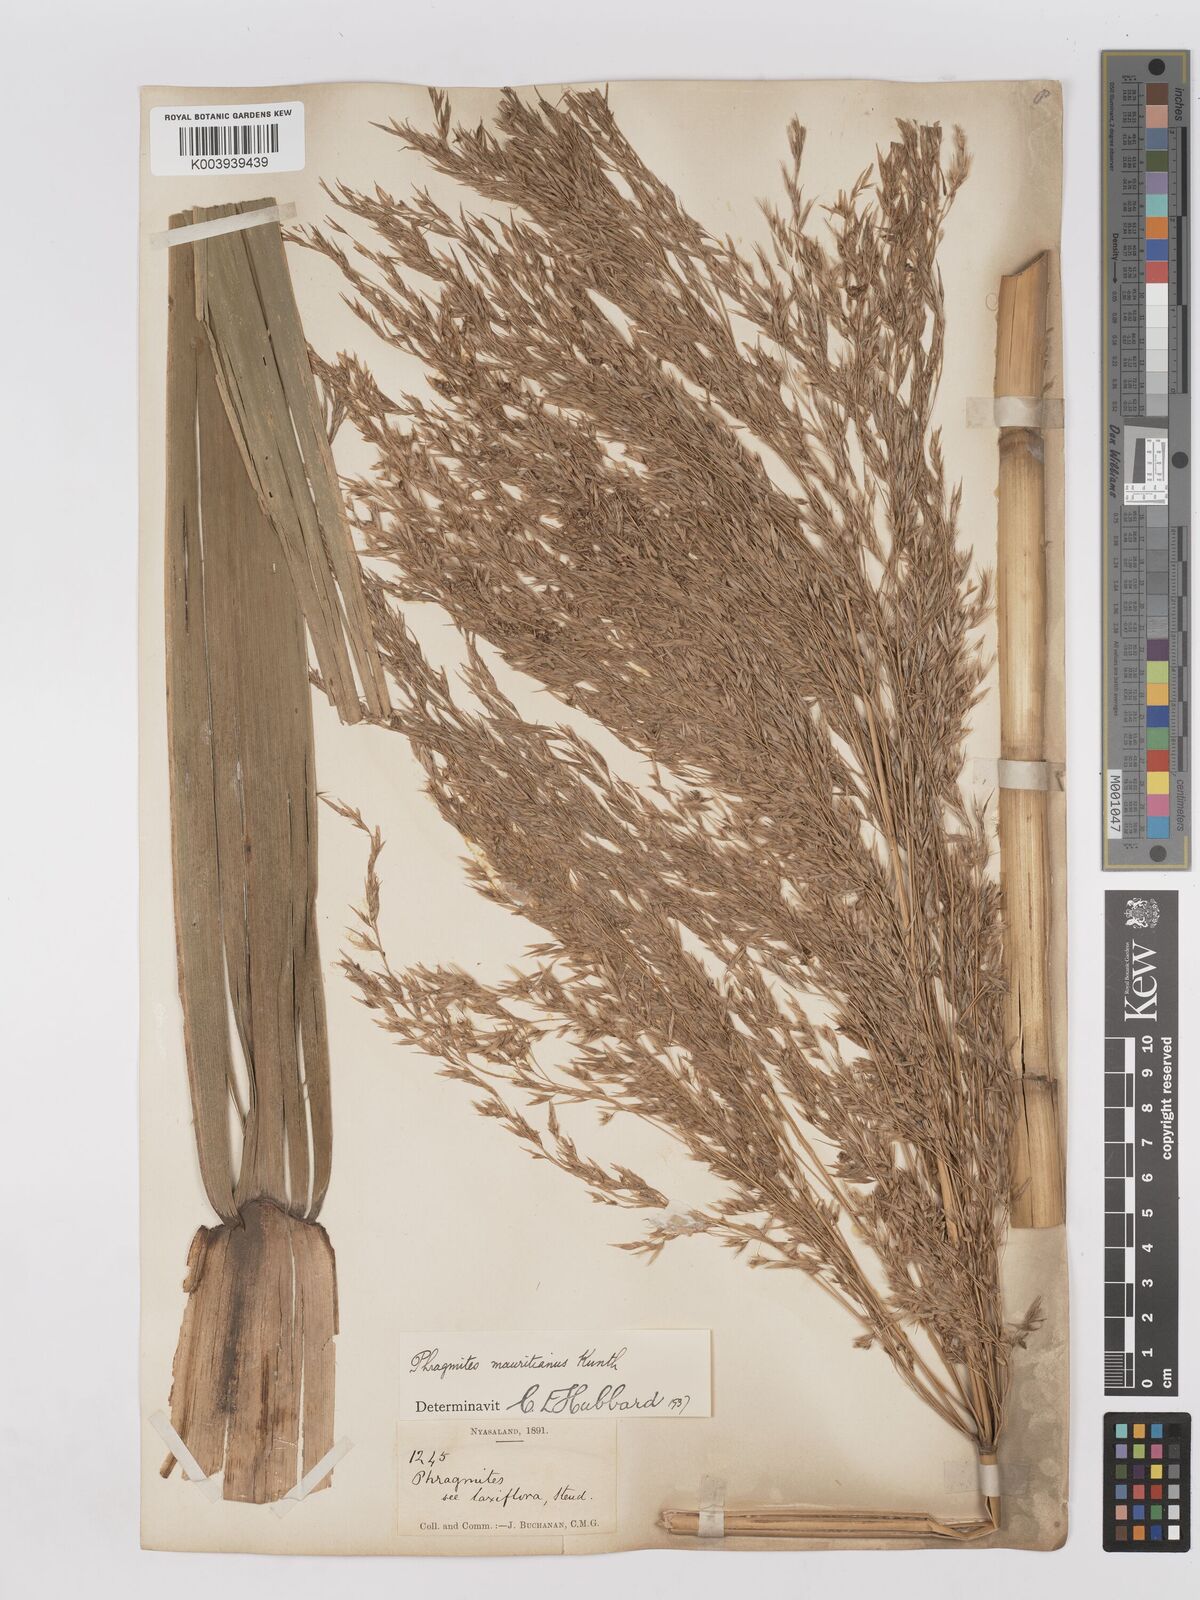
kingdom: Plantae
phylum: Tracheophyta
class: Liliopsida
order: Poales
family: Poaceae
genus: Phragmites
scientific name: Phragmites mauritianus
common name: Reed grass
